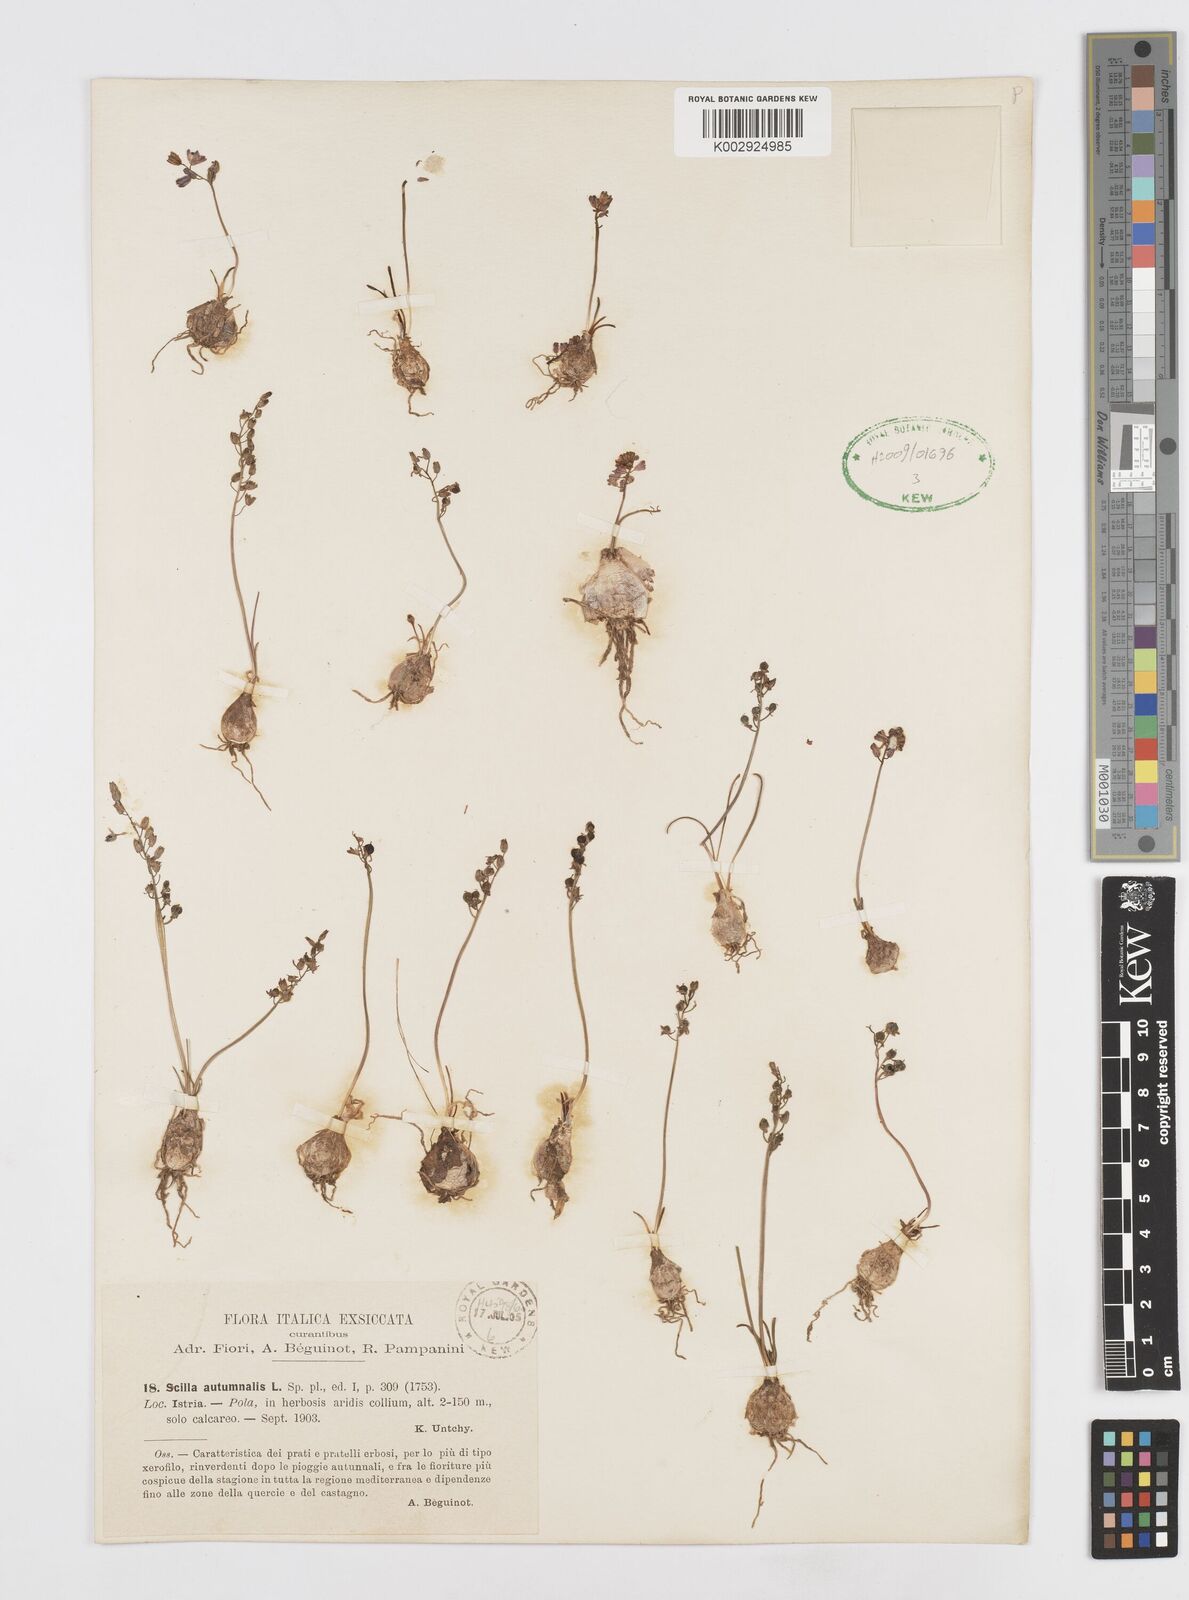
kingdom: Plantae
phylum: Tracheophyta
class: Liliopsida
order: Asparagales
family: Asparagaceae
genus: Prospero
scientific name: Prospero autumnale
